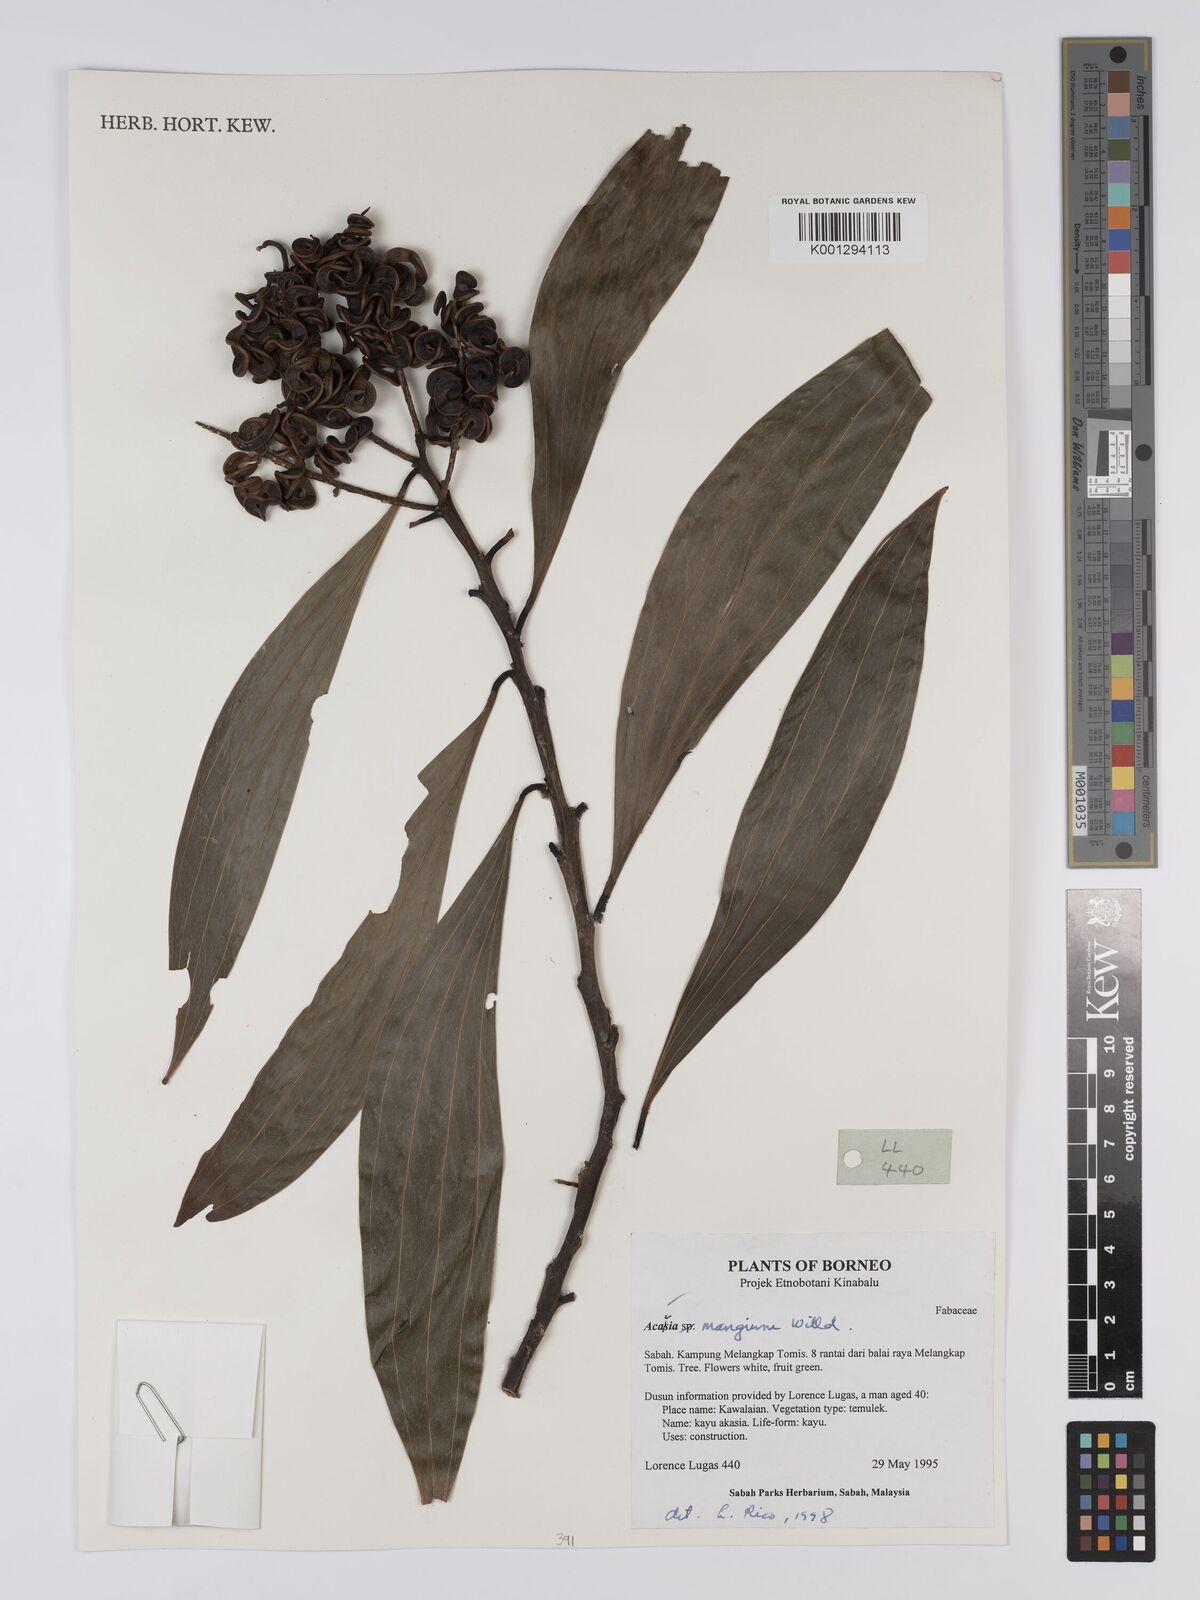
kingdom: Plantae
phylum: Tracheophyta
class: Magnoliopsida
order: Fabales
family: Fabaceae
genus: Acacia
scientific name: Acacia mangium
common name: Black wattle
